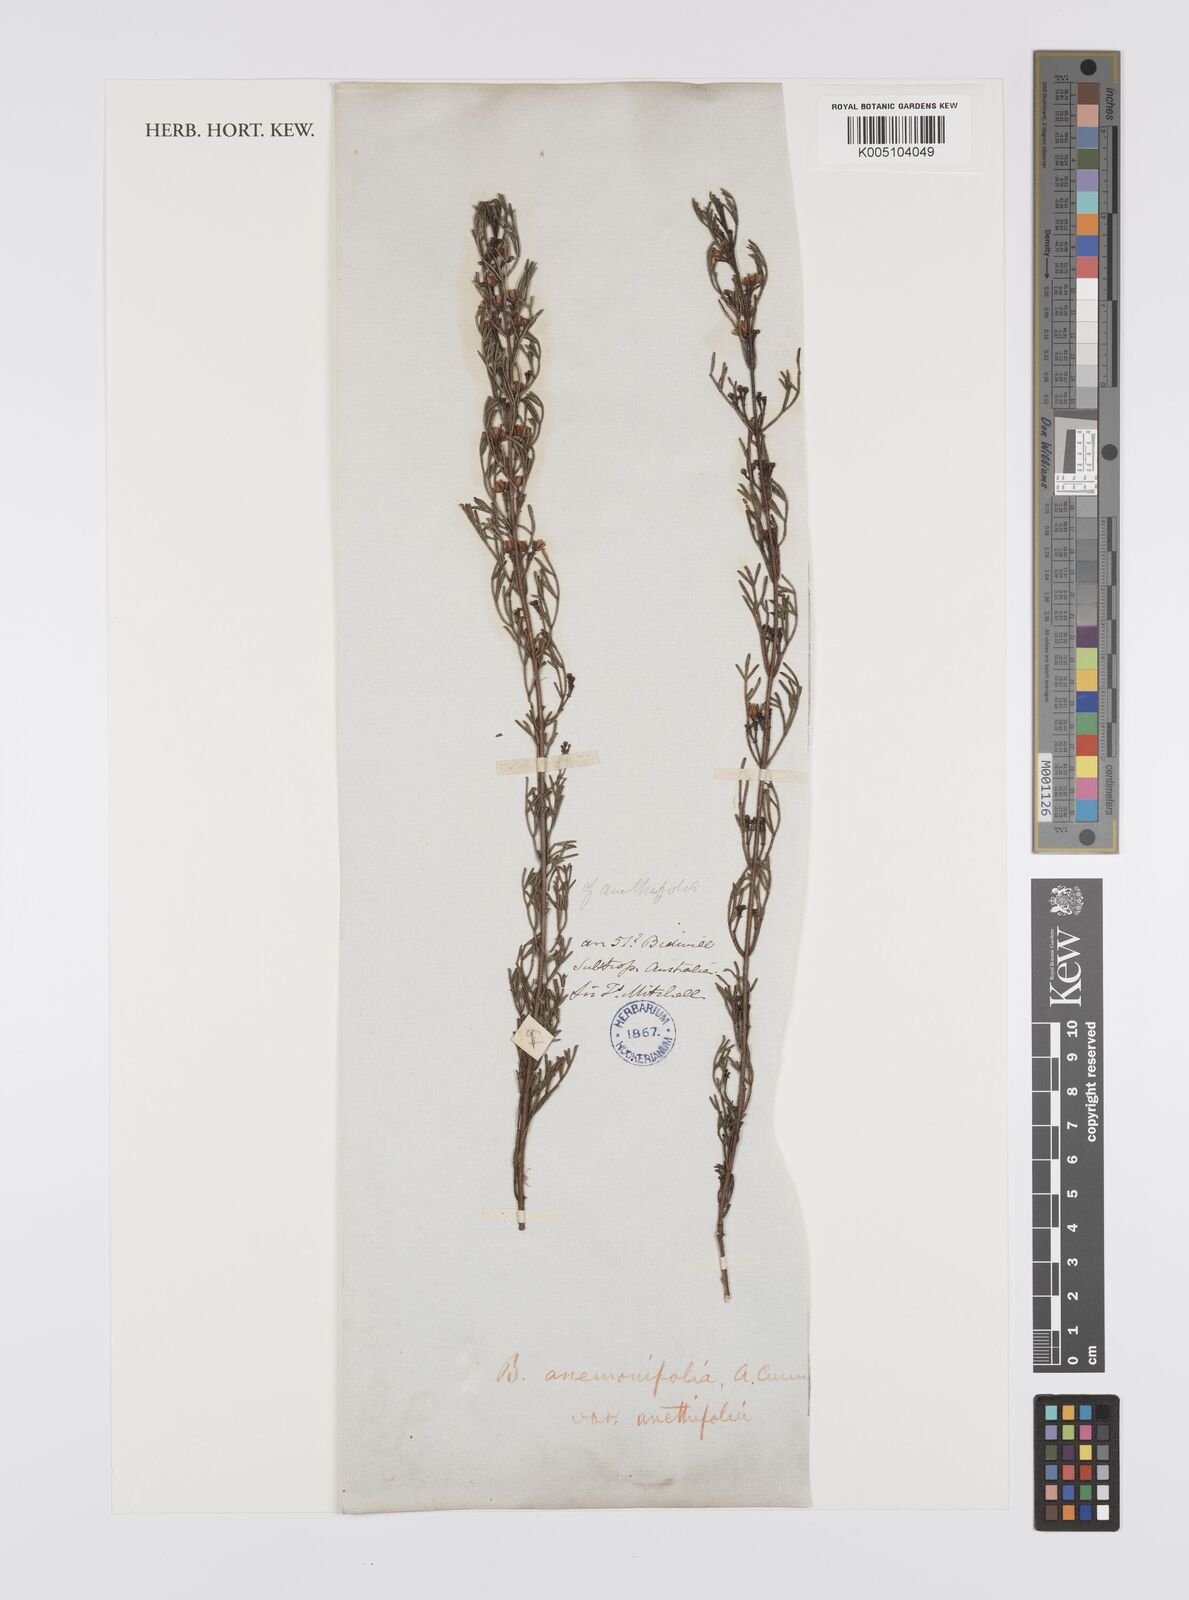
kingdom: Plantae
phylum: Tracheophyta
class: Magnoliopsida
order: Sapindales
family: Rutaceae
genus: Cyanothamnus
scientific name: Cyanothamnus quadrangulus
